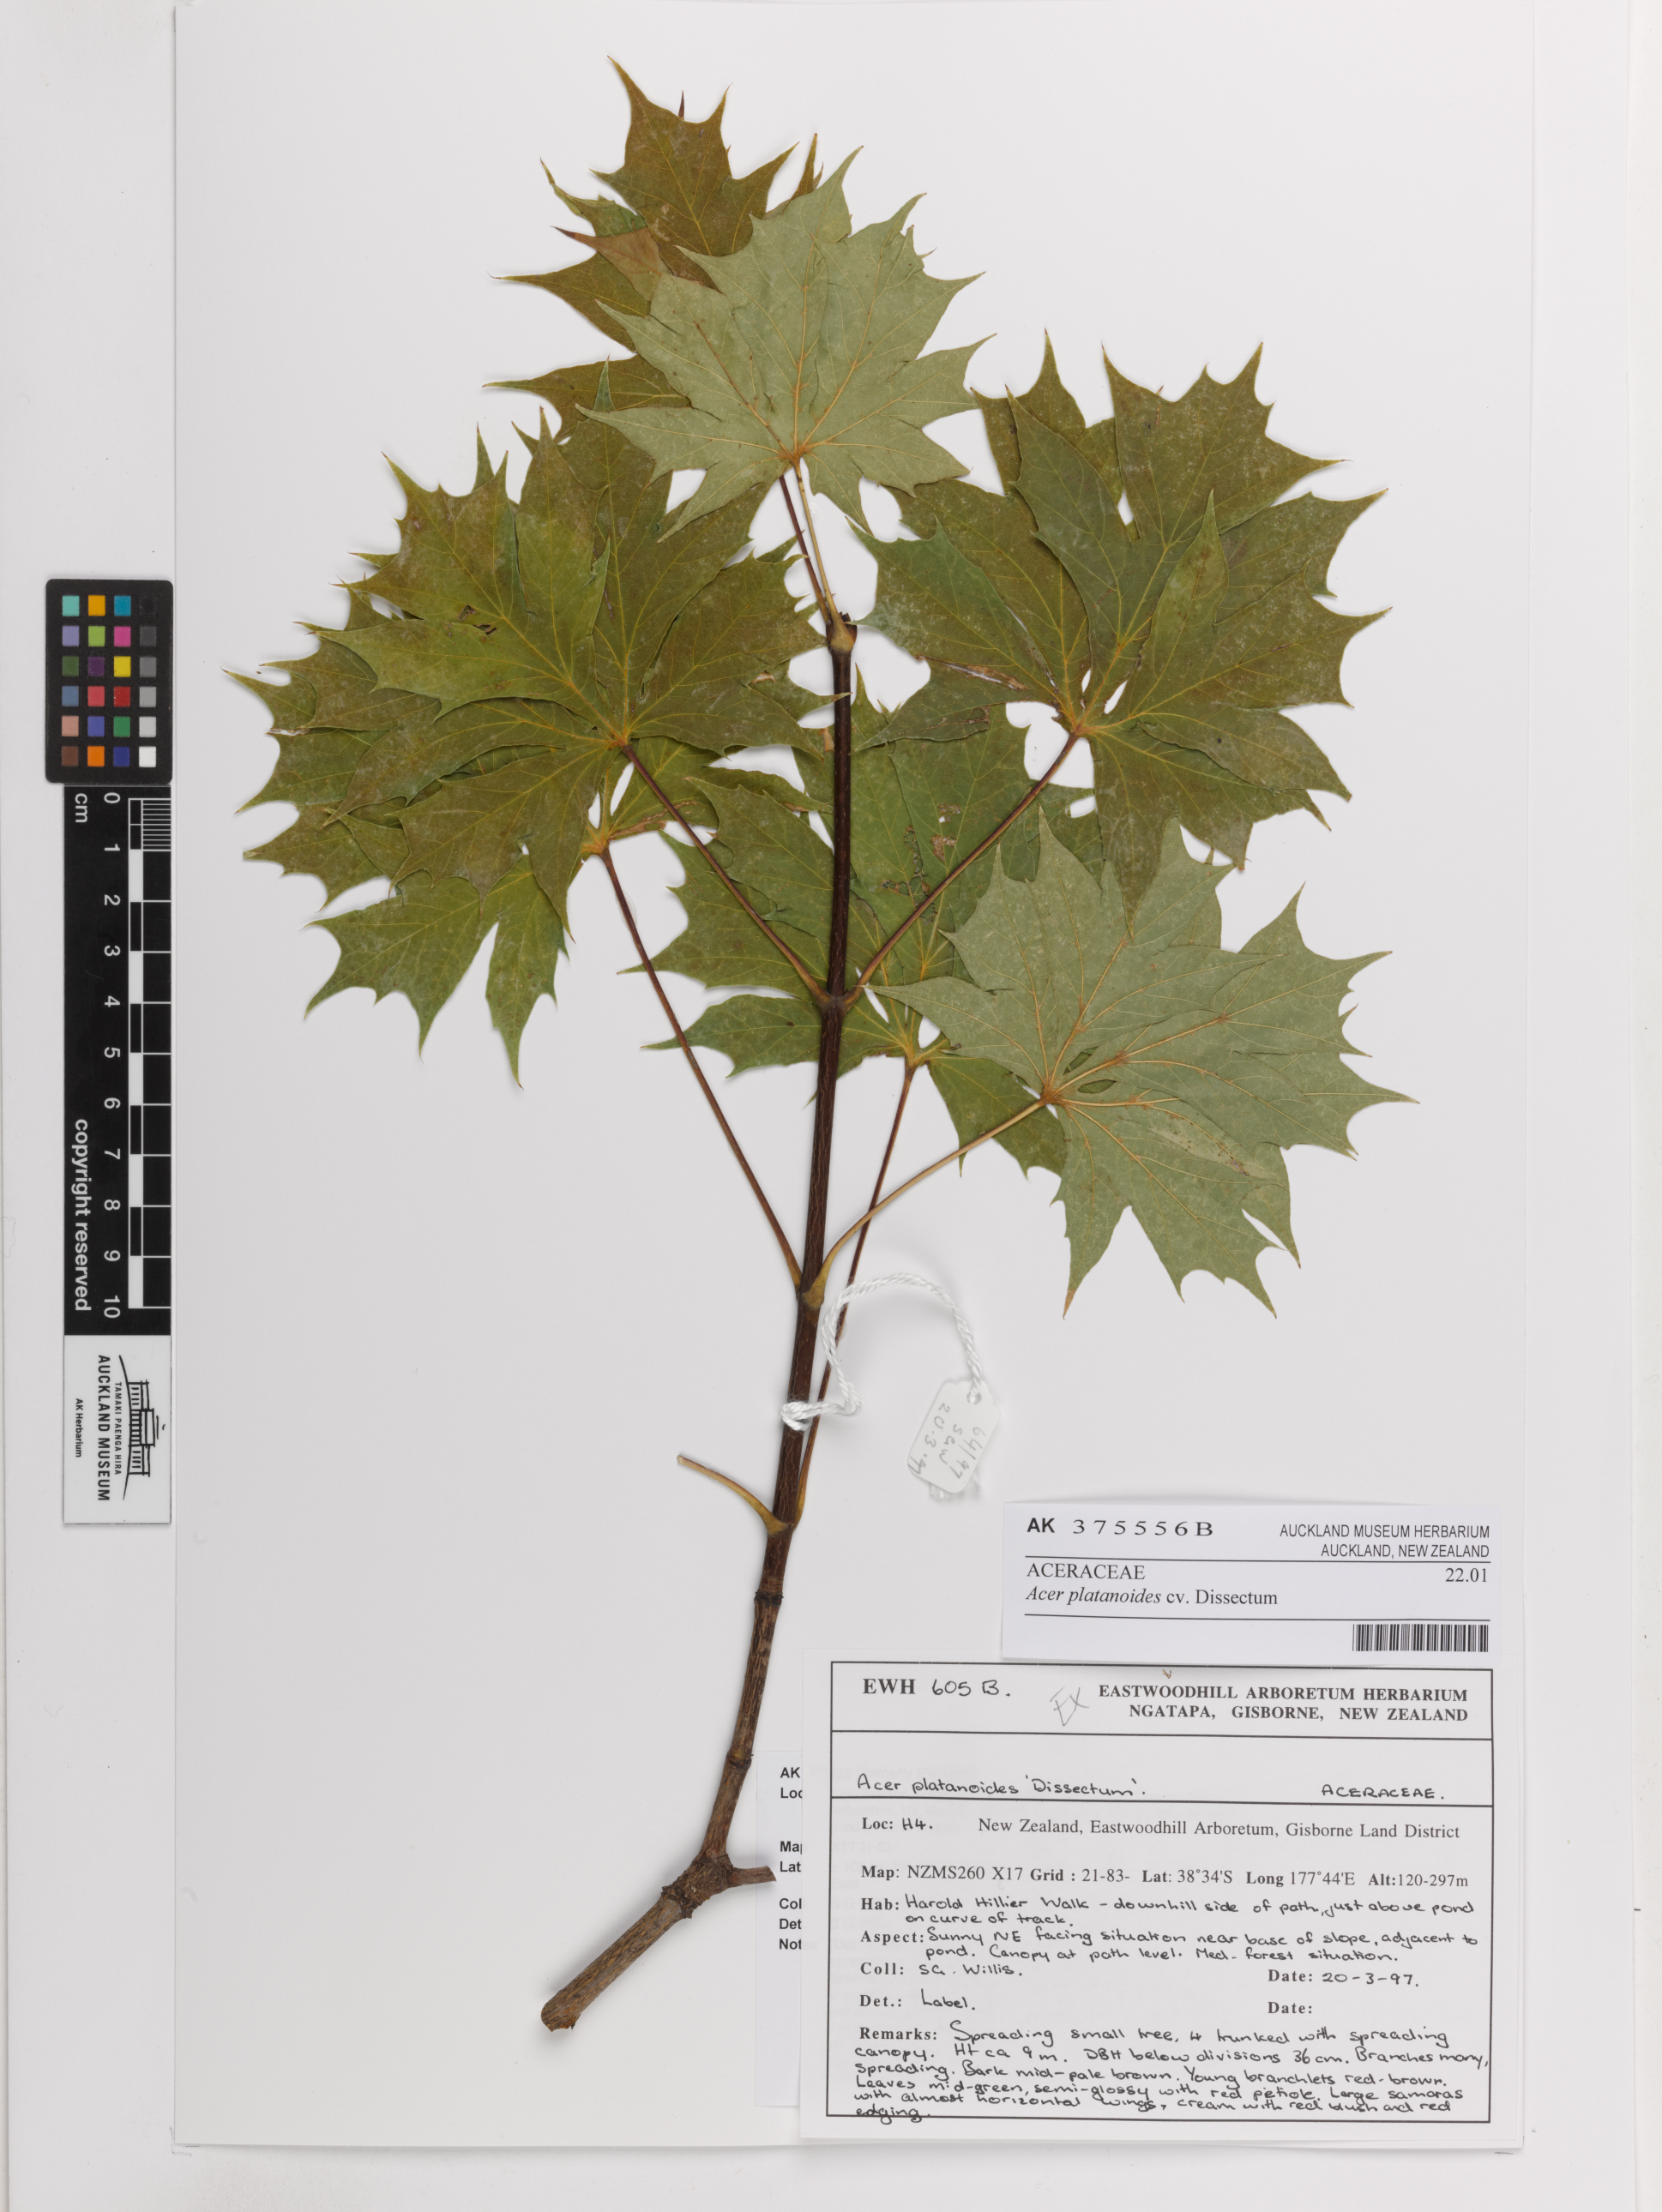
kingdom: Plantae
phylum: Tracheophyta
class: Magnoliopsida
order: Sapindales
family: Sapindaceae
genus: Acer
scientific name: Acer platanoides
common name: Norway maple
